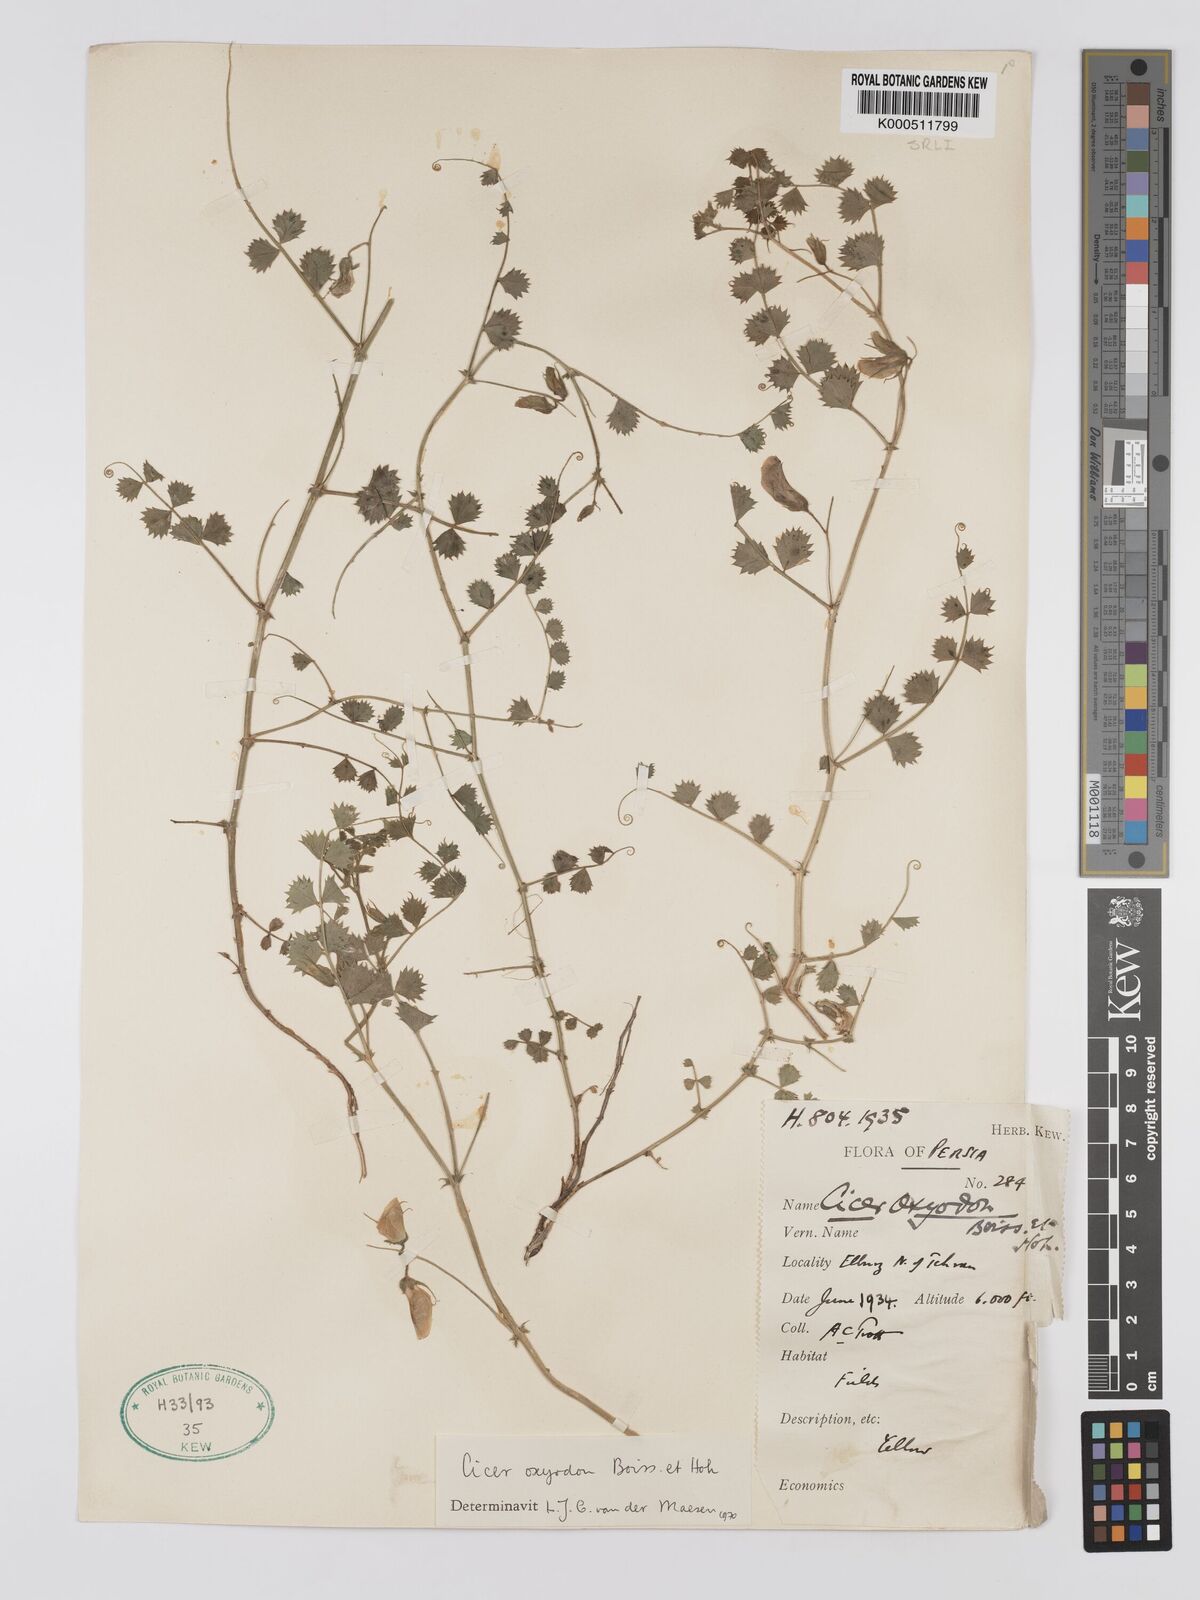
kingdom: Plantae
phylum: Tracheophyta
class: Magnoliopsida
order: Fabales
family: Fabaceae
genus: Cicer
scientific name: Cicer oxyodon
